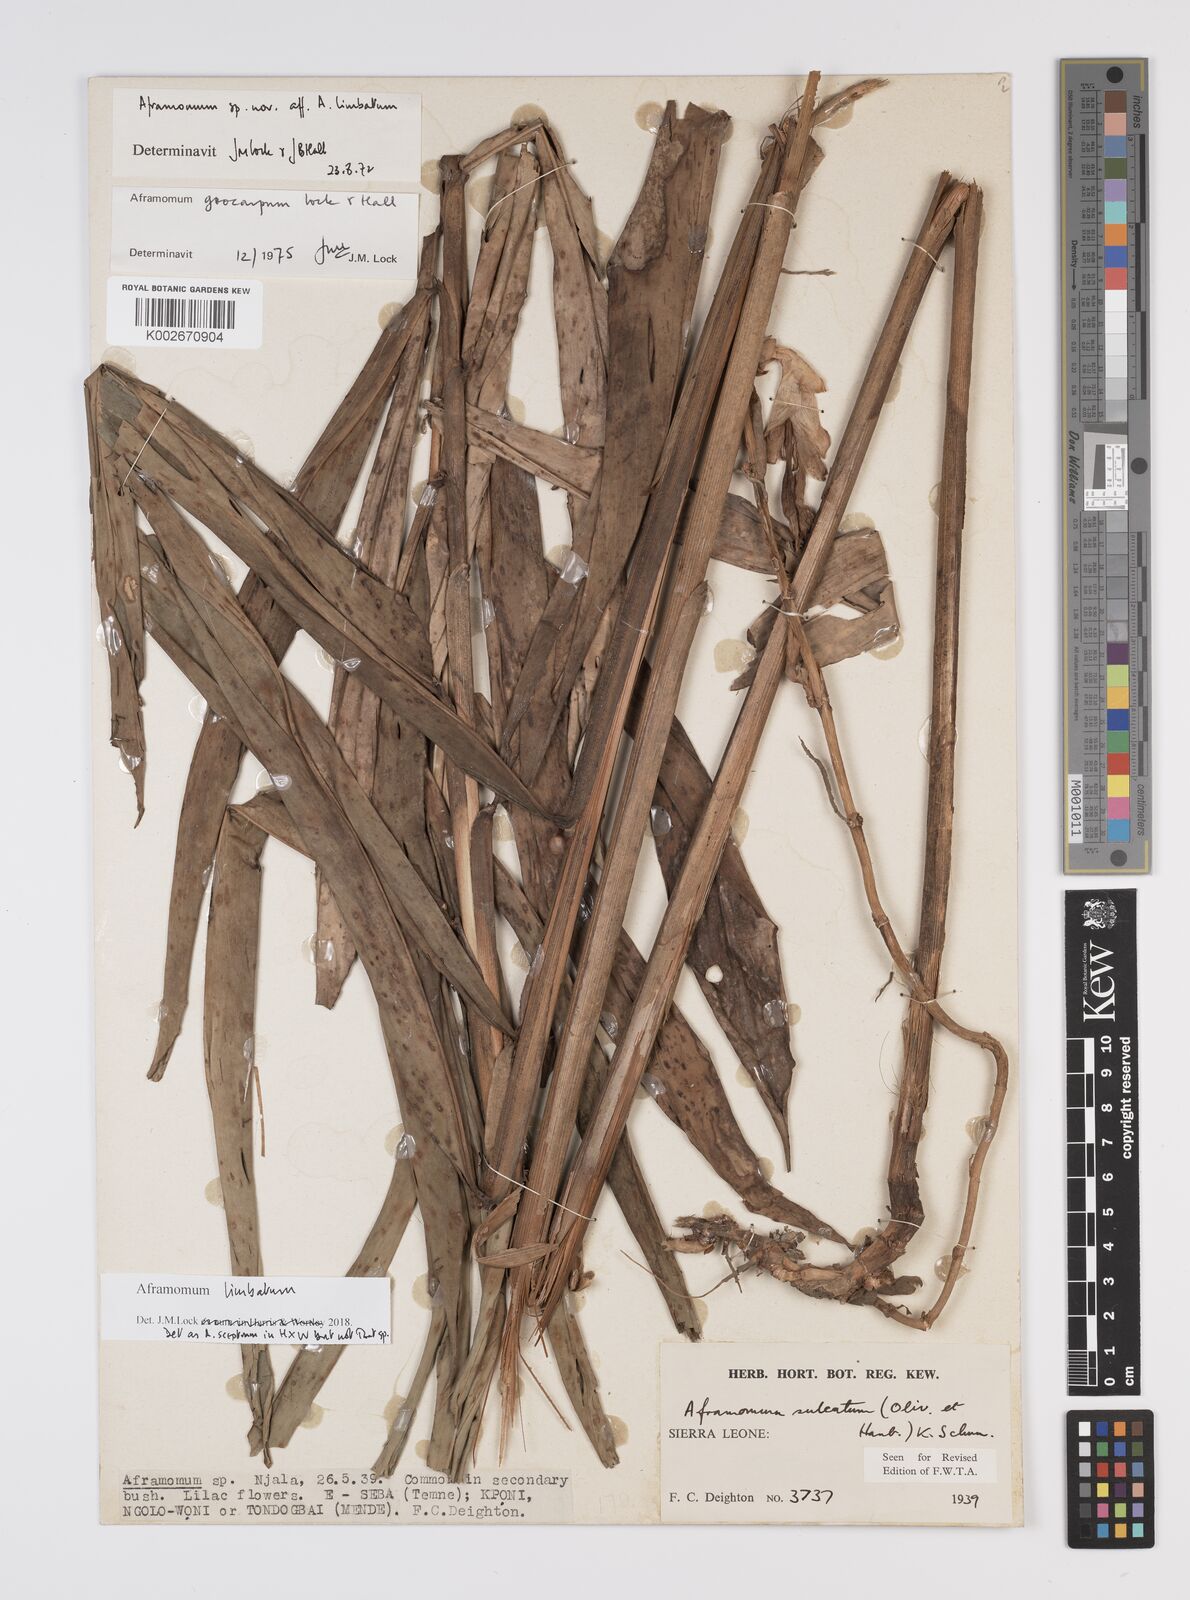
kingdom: Plantae
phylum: Tracheophyta
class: Liliopsida
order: Zingiberales
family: Zingiberaceae
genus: Aframomum
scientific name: Aframomum limbatum
